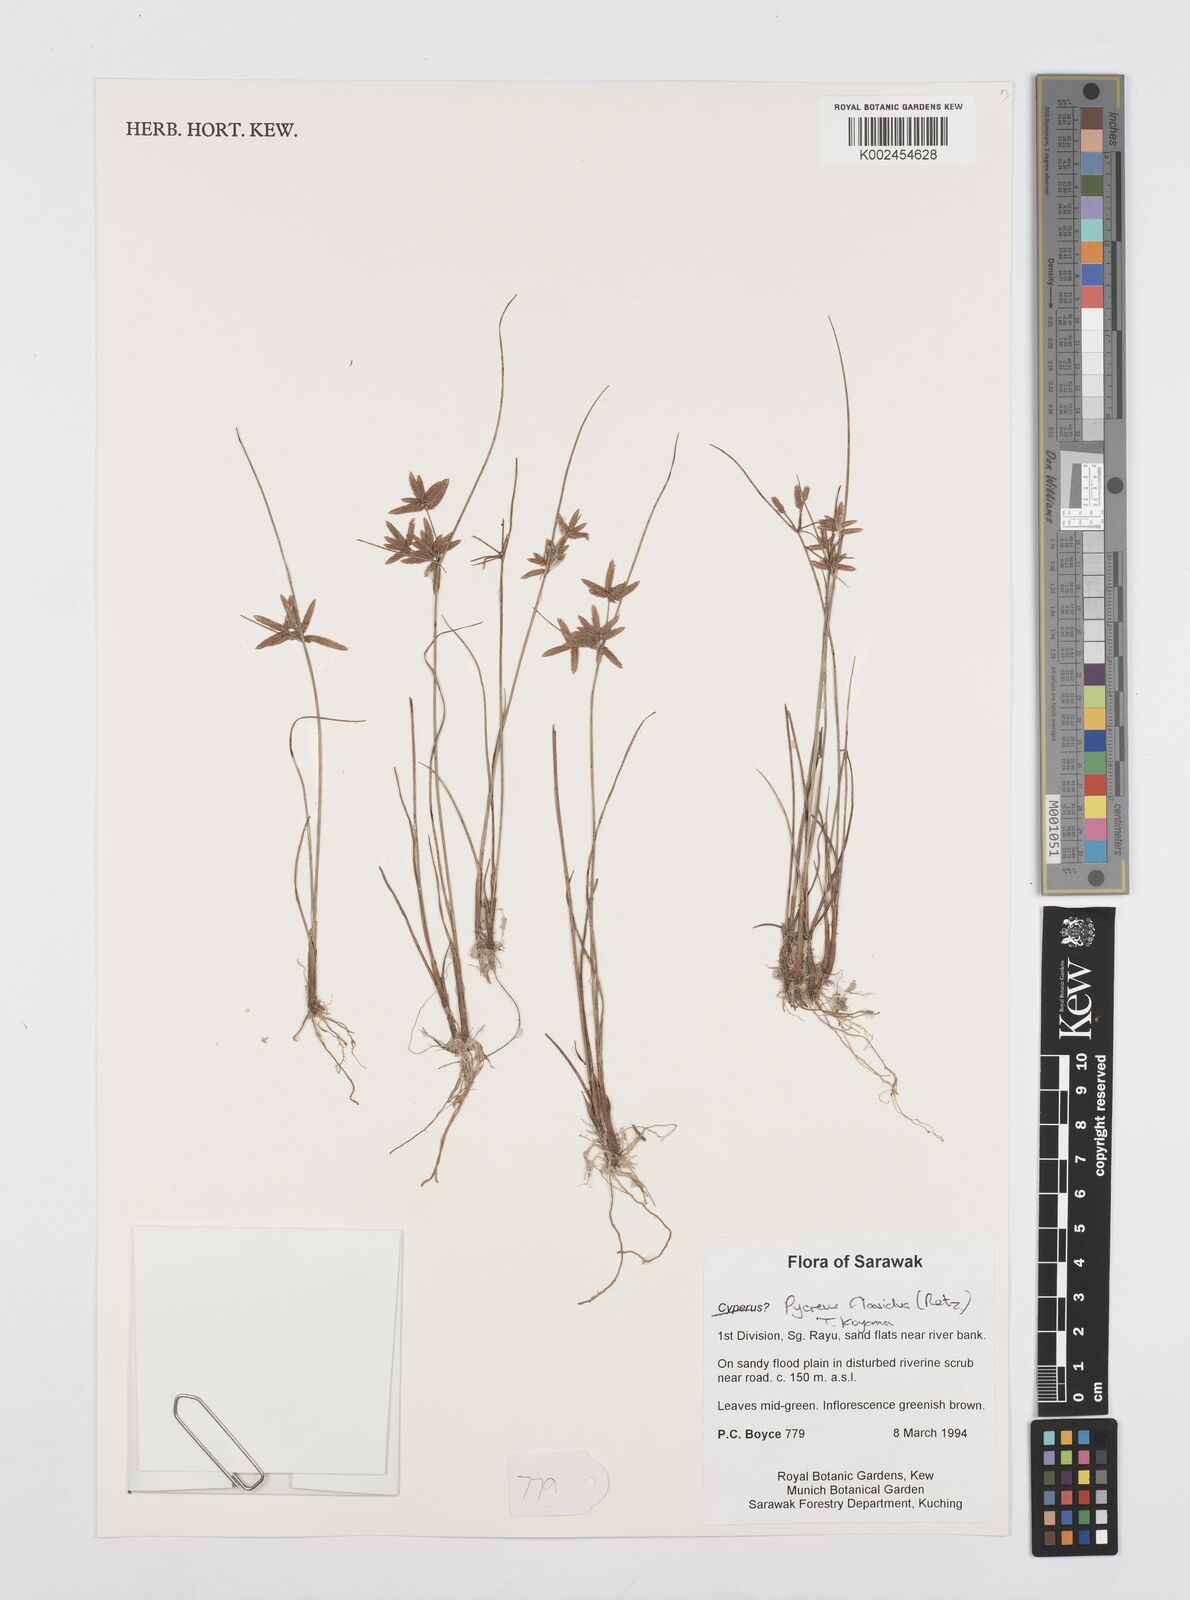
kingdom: Plantae
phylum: Tracheophyta
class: Liliopsida
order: Poales
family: Cyperaceae
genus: Cyperus
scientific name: Cyperus flavidus
